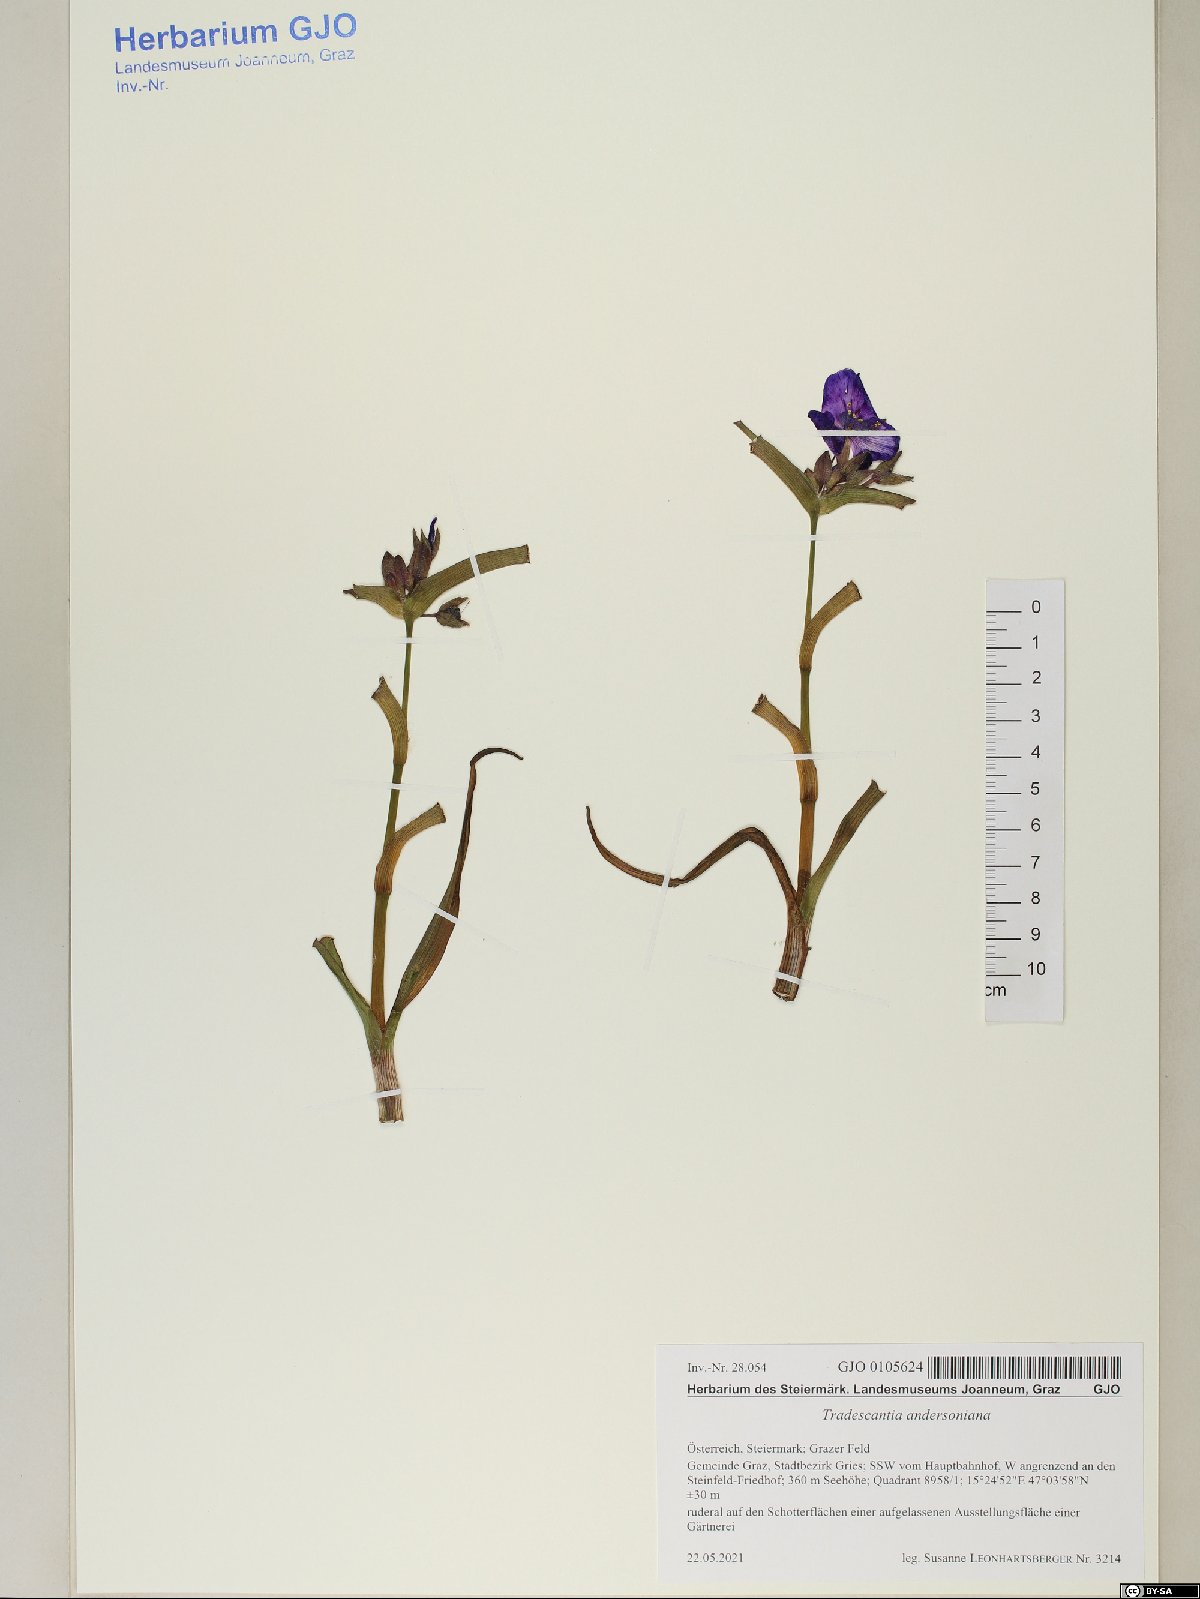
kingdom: Plantae
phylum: Tracheophyta
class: Liliopsida
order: Commelinales
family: Commelinaceae
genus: Tradescantia
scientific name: Tradescantia andersoniana
